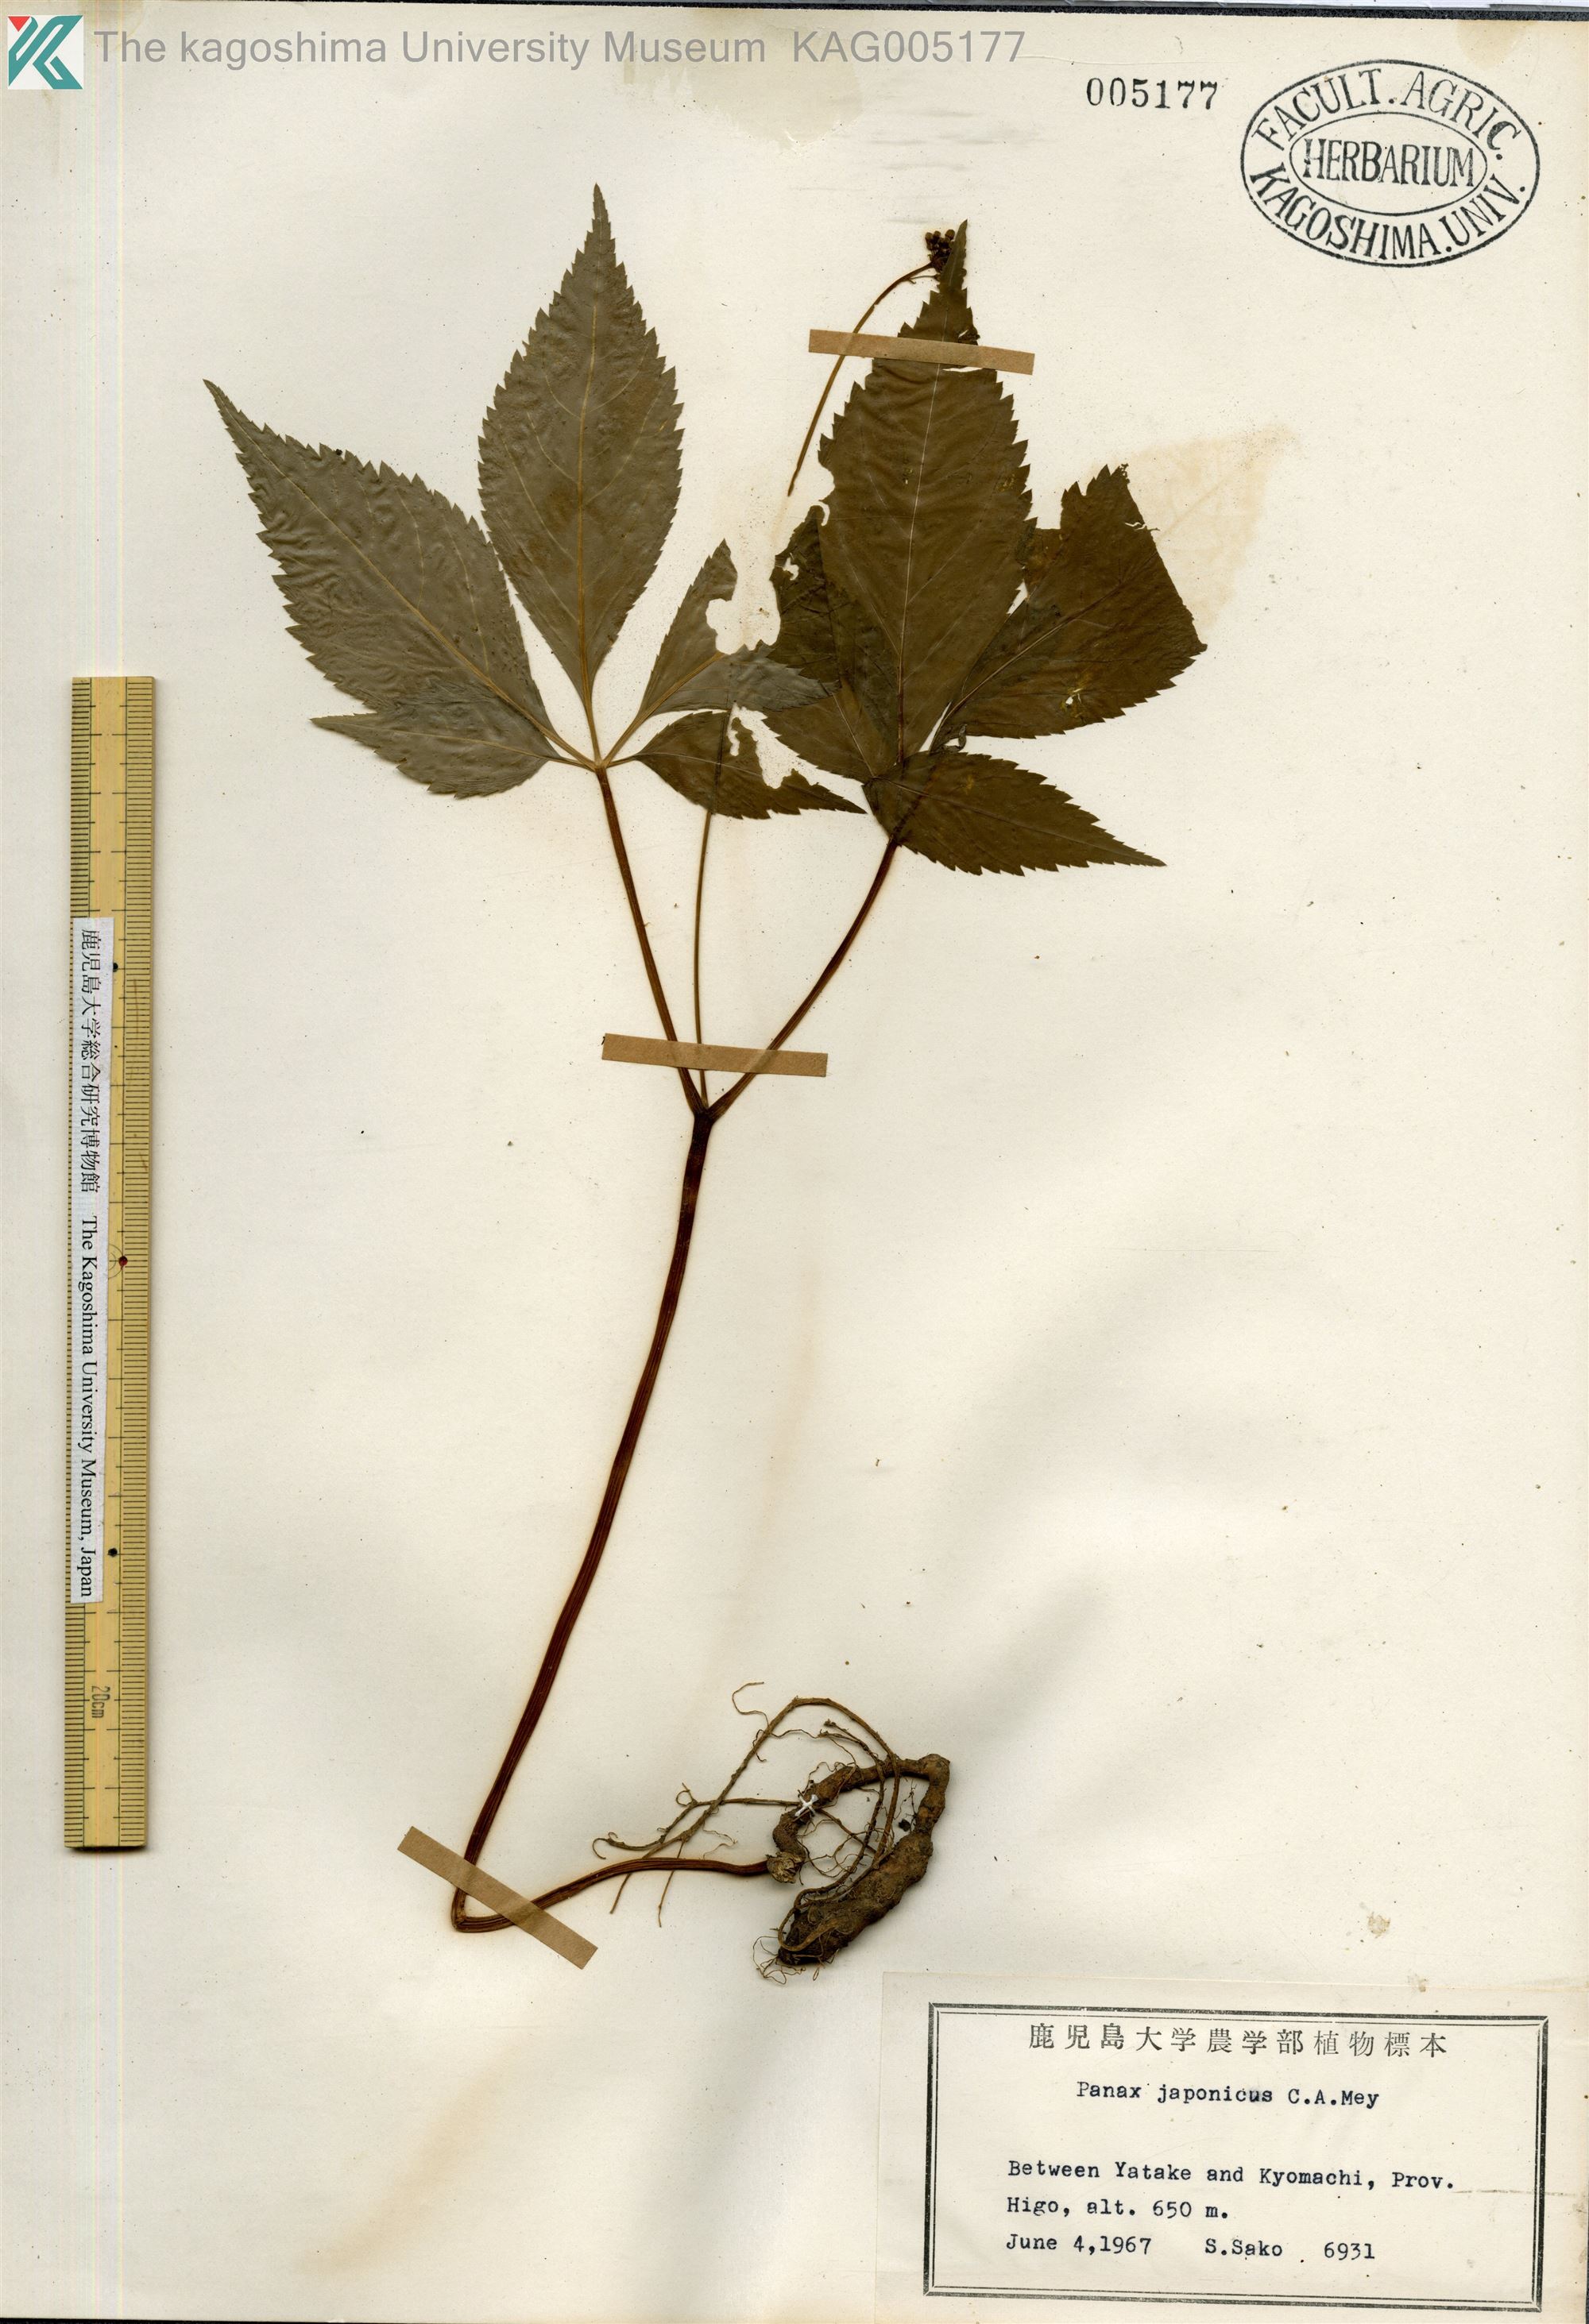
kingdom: Plantae
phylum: Tracheophyta
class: Magnoliopsida
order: Apiales
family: Araliaceae
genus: Panax
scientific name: Panax japonicus
